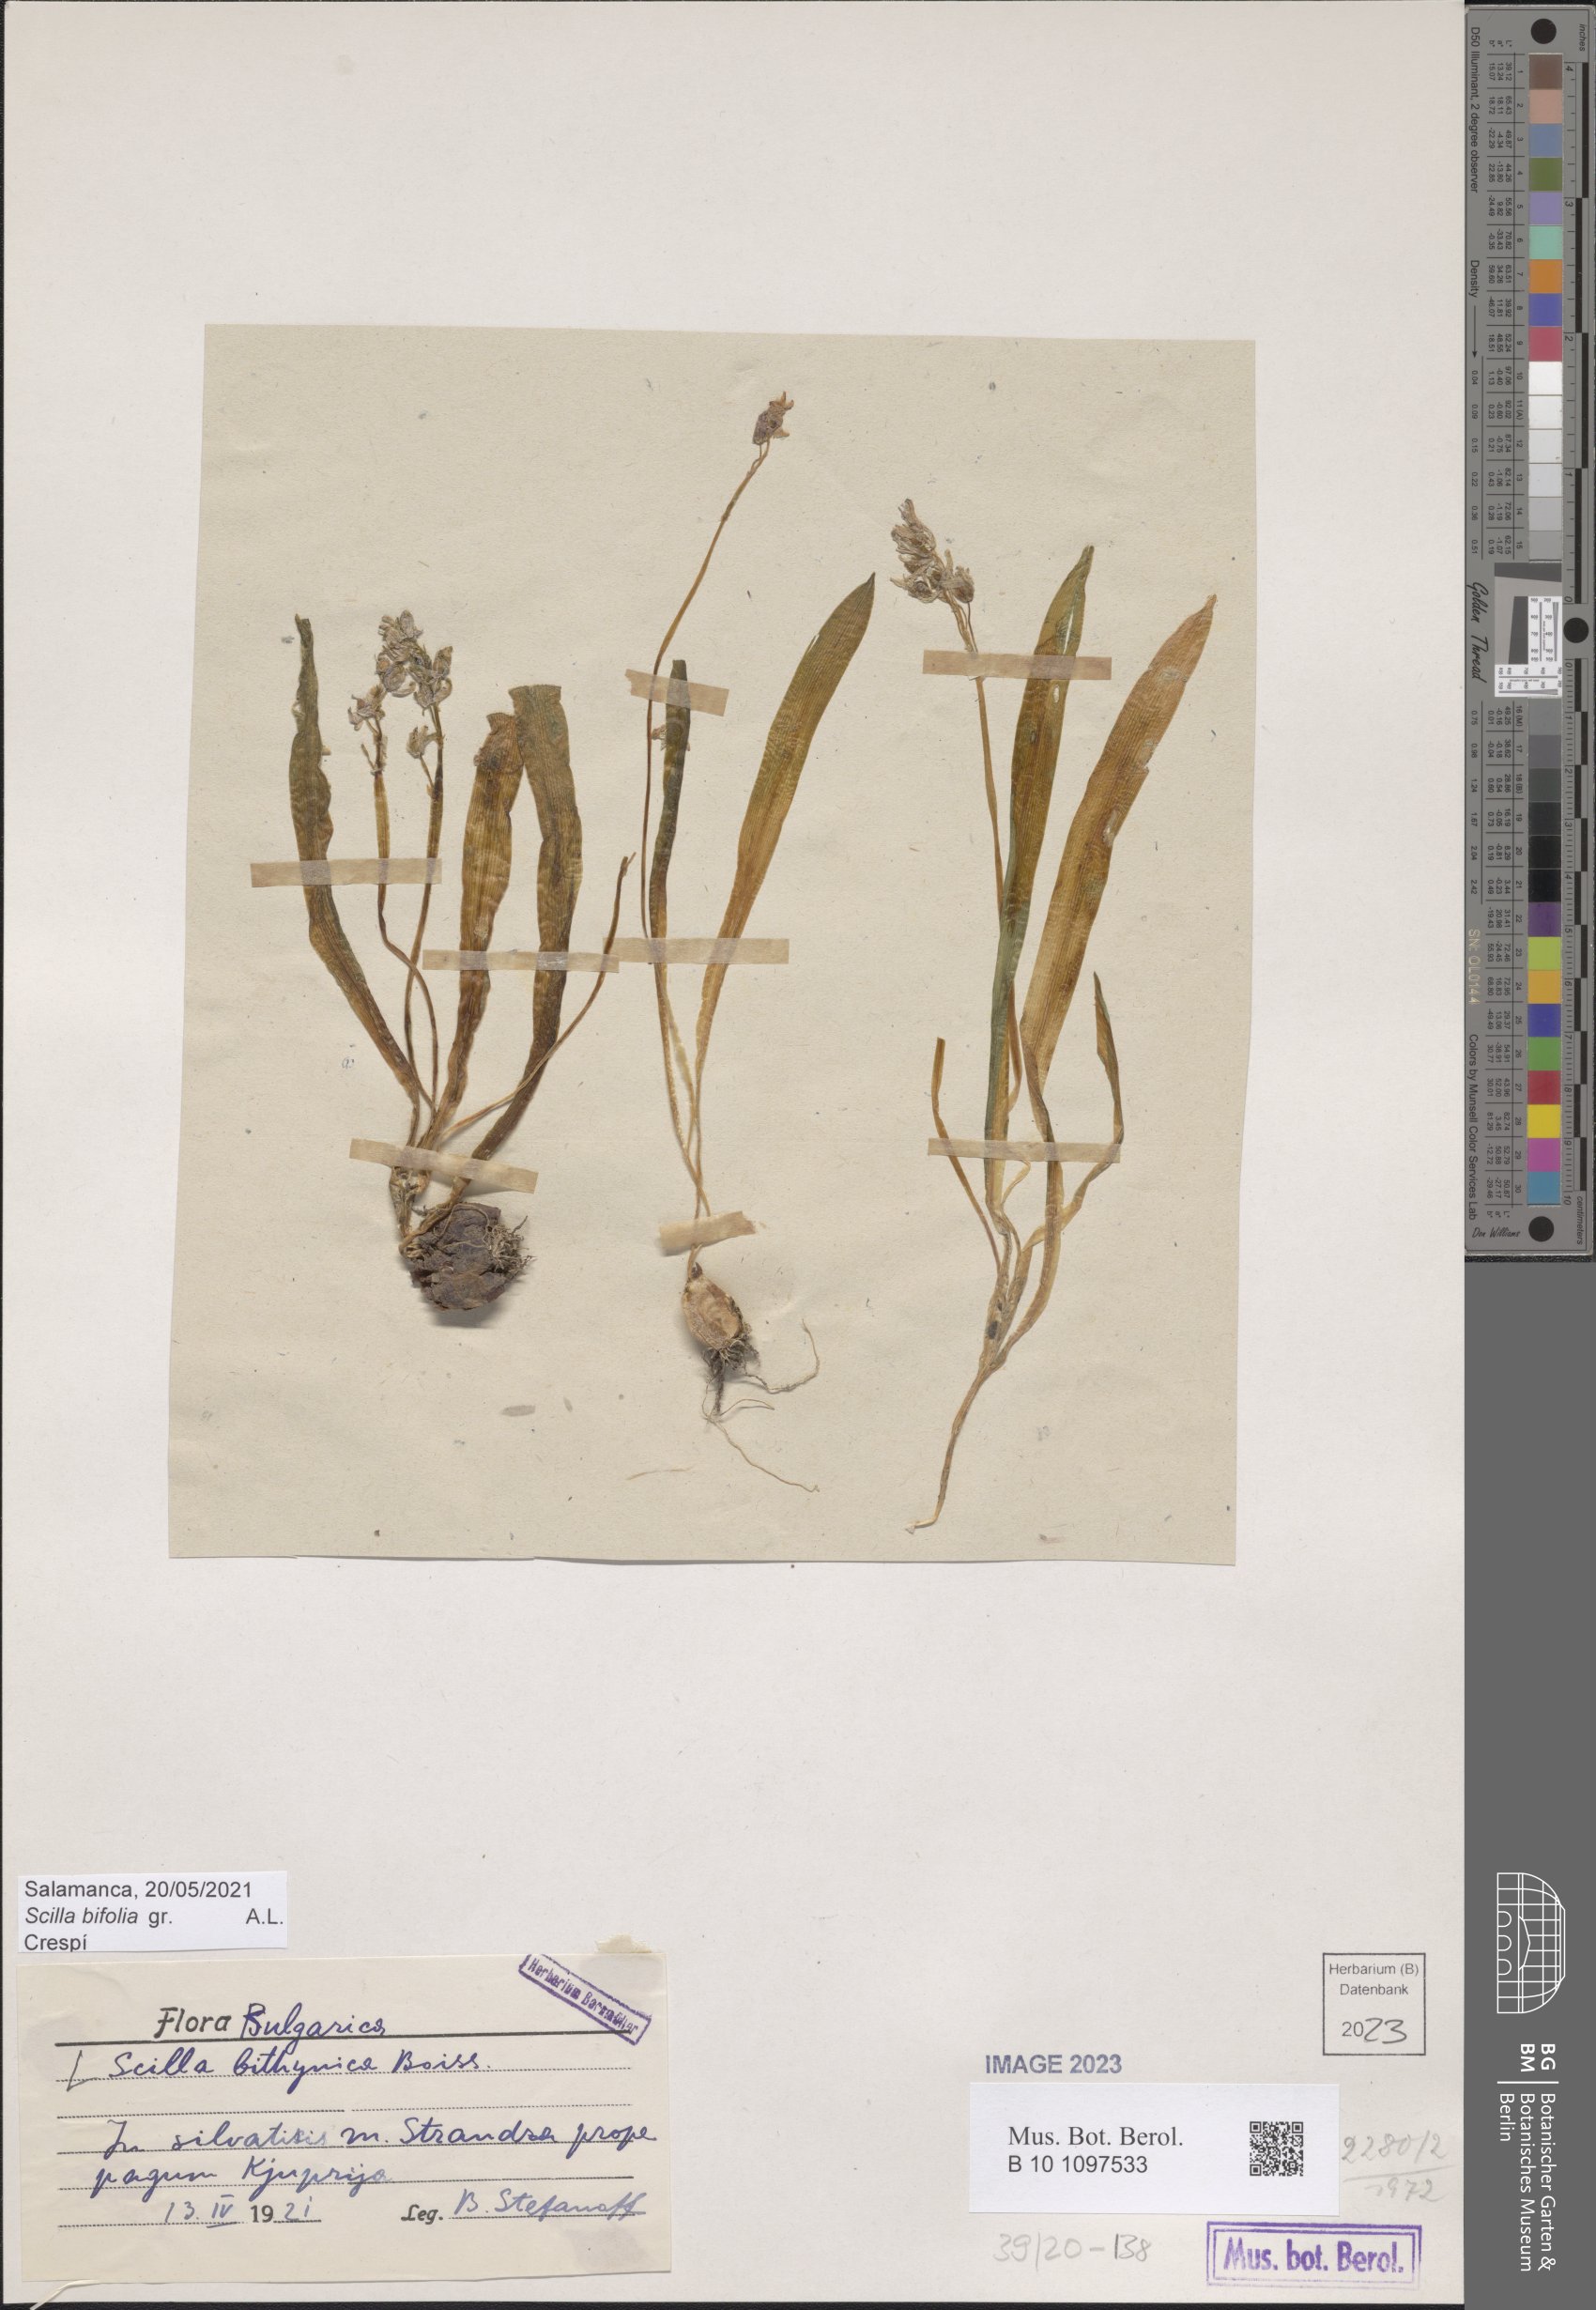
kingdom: Plantae
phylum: Tracheophyta
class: Liliopsida
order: Asparagales
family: Asparagaceae
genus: Scilla
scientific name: Scilla bithynica
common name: Turkish squill
